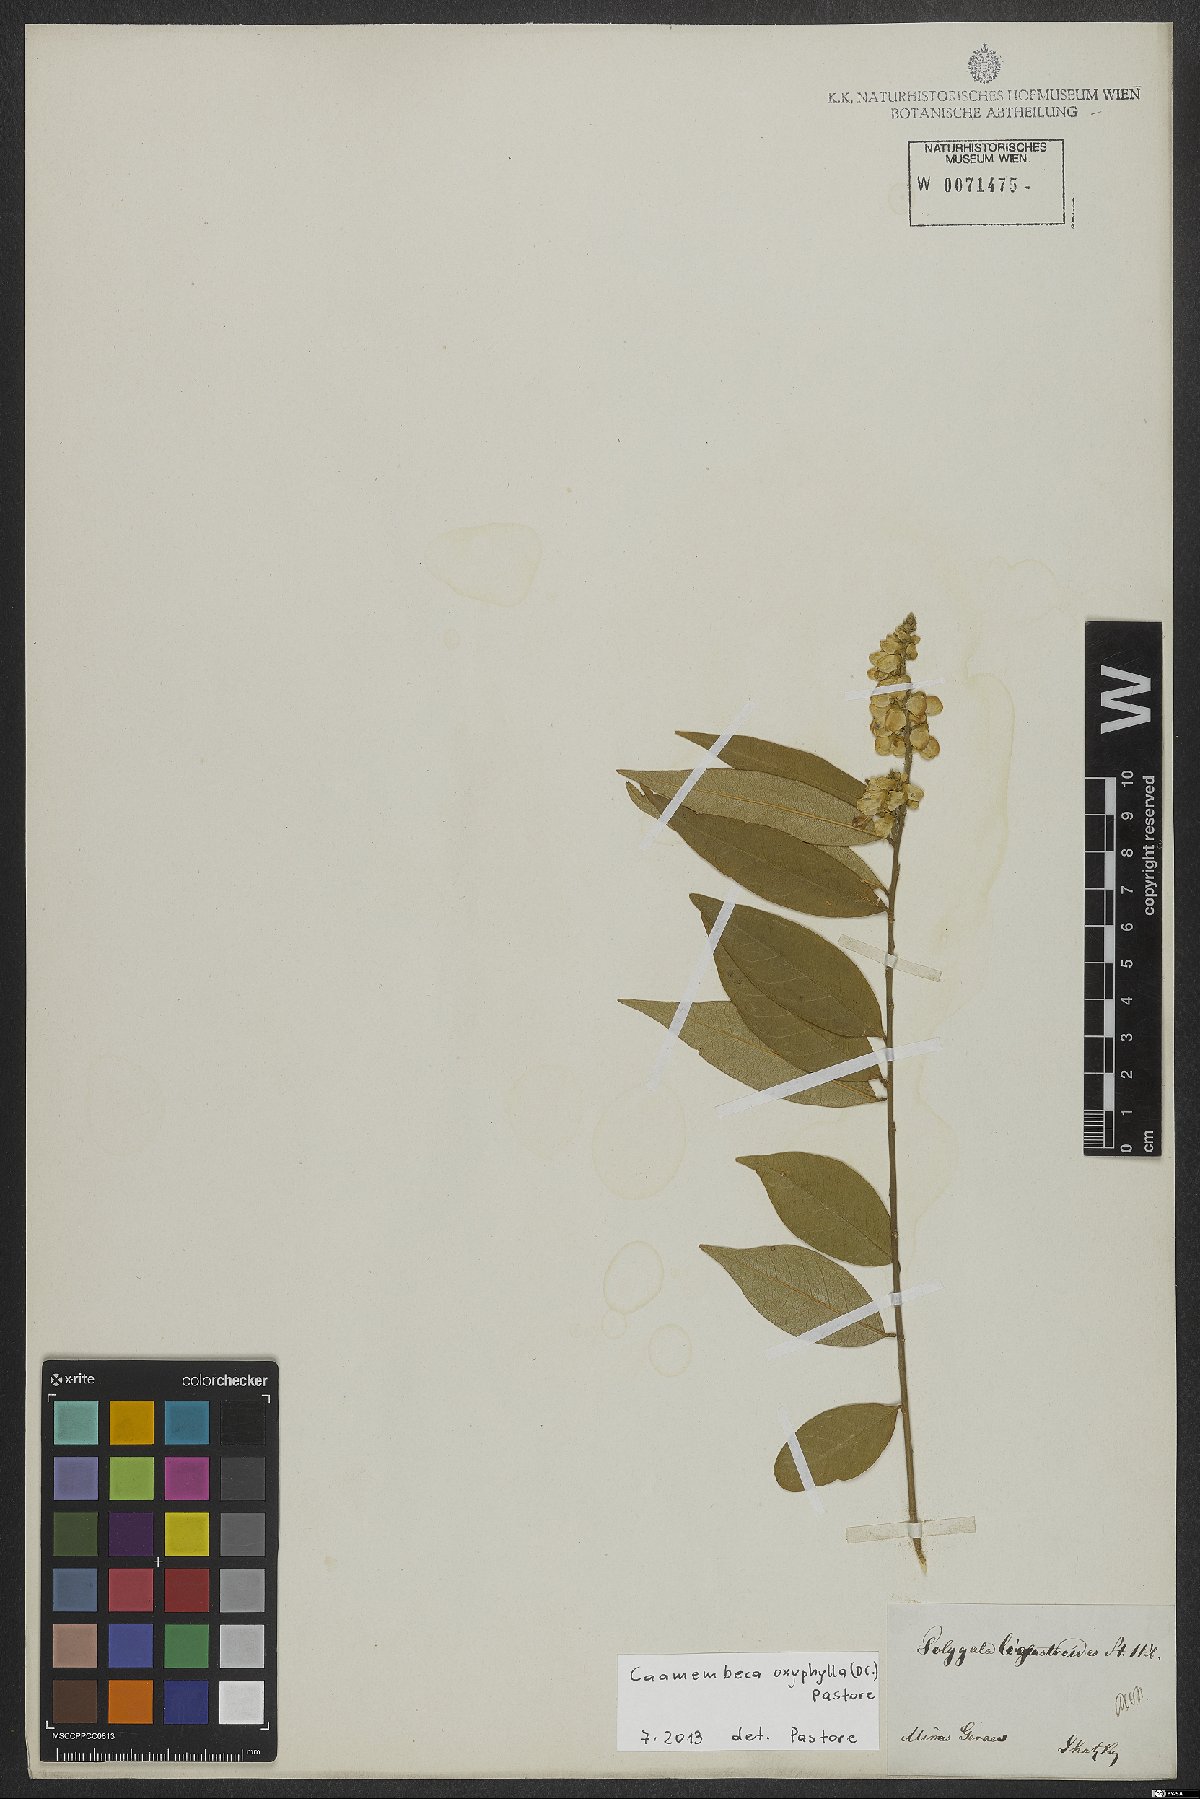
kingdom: Plantae
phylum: Tracheophyta
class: Magnoliopsida
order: Fabales
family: Polygalaceae
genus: Caamembeca
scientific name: Caamembeca oxyphylla
